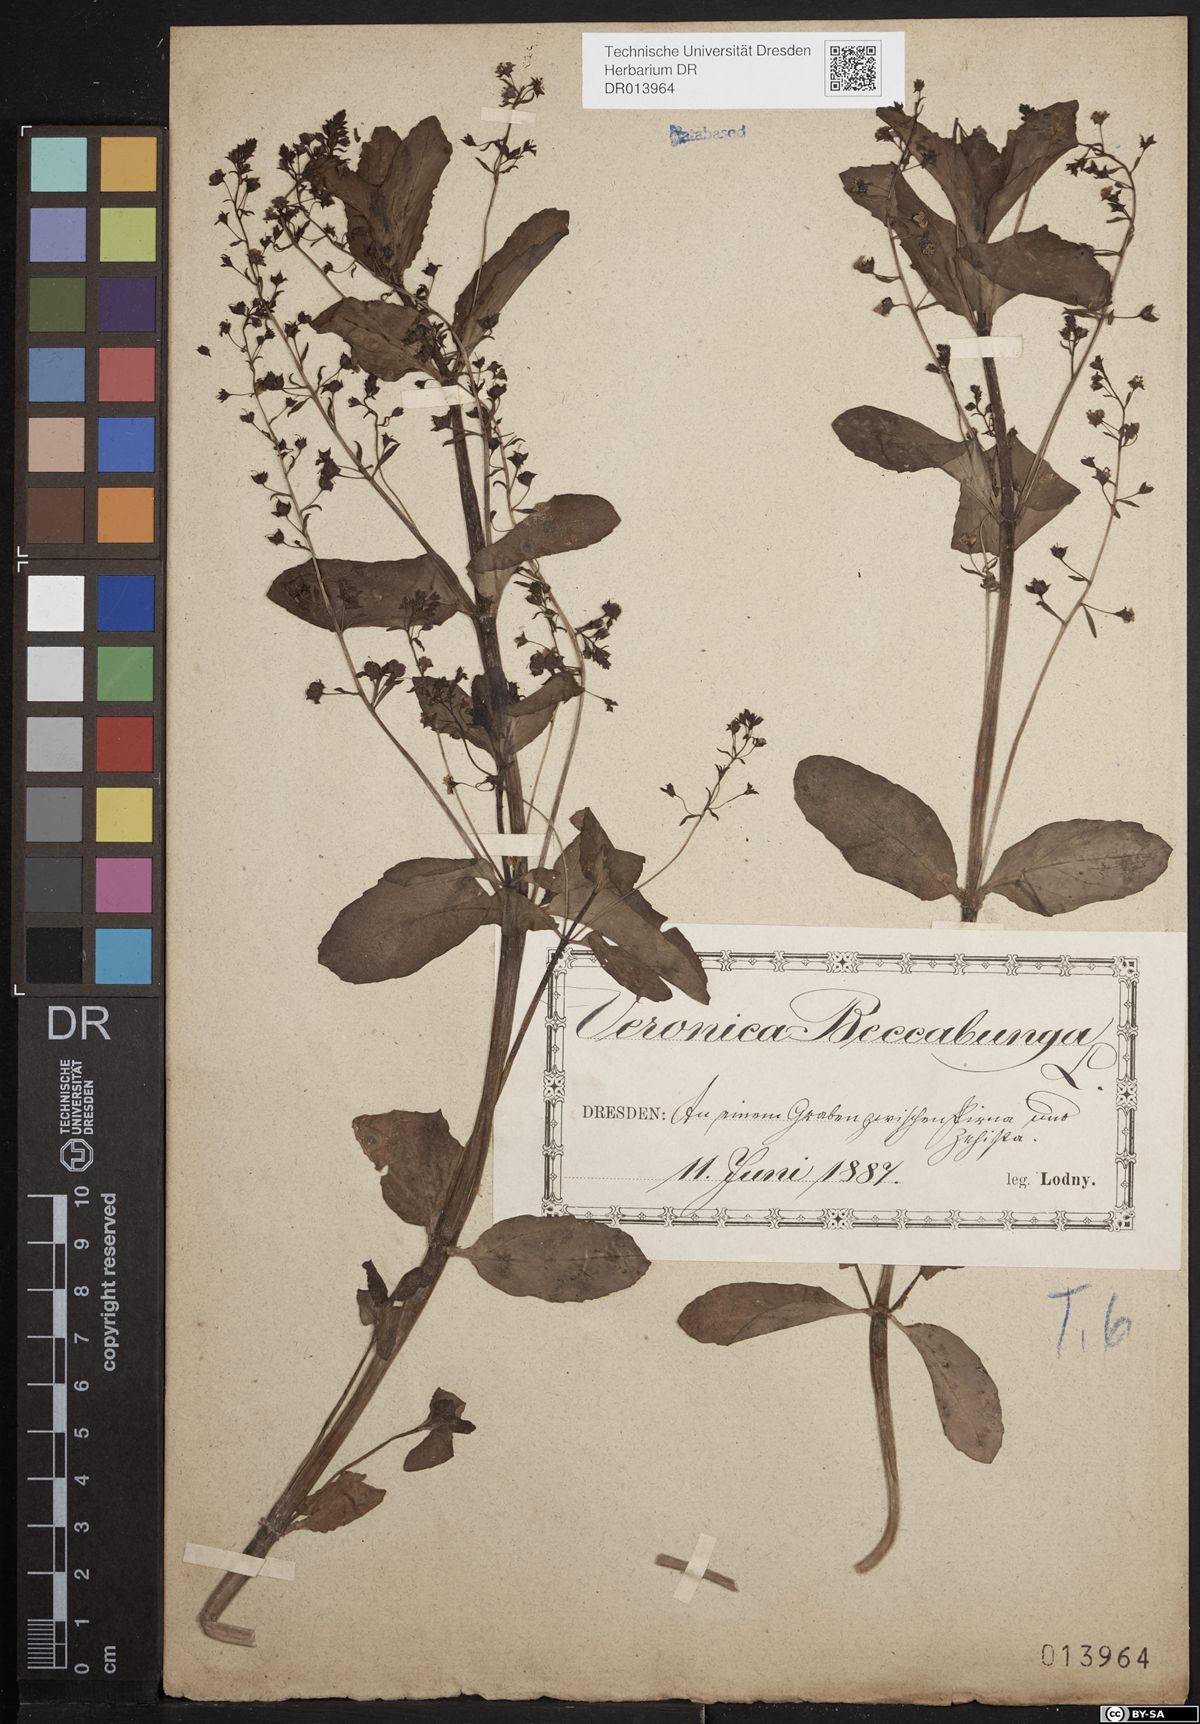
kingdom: Plantae
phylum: Tracheophyta
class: Magnoliopsida
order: Lamiales
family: Plantaginaceae
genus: Veronica
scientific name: Veronica beccabunga
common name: Brooklime
